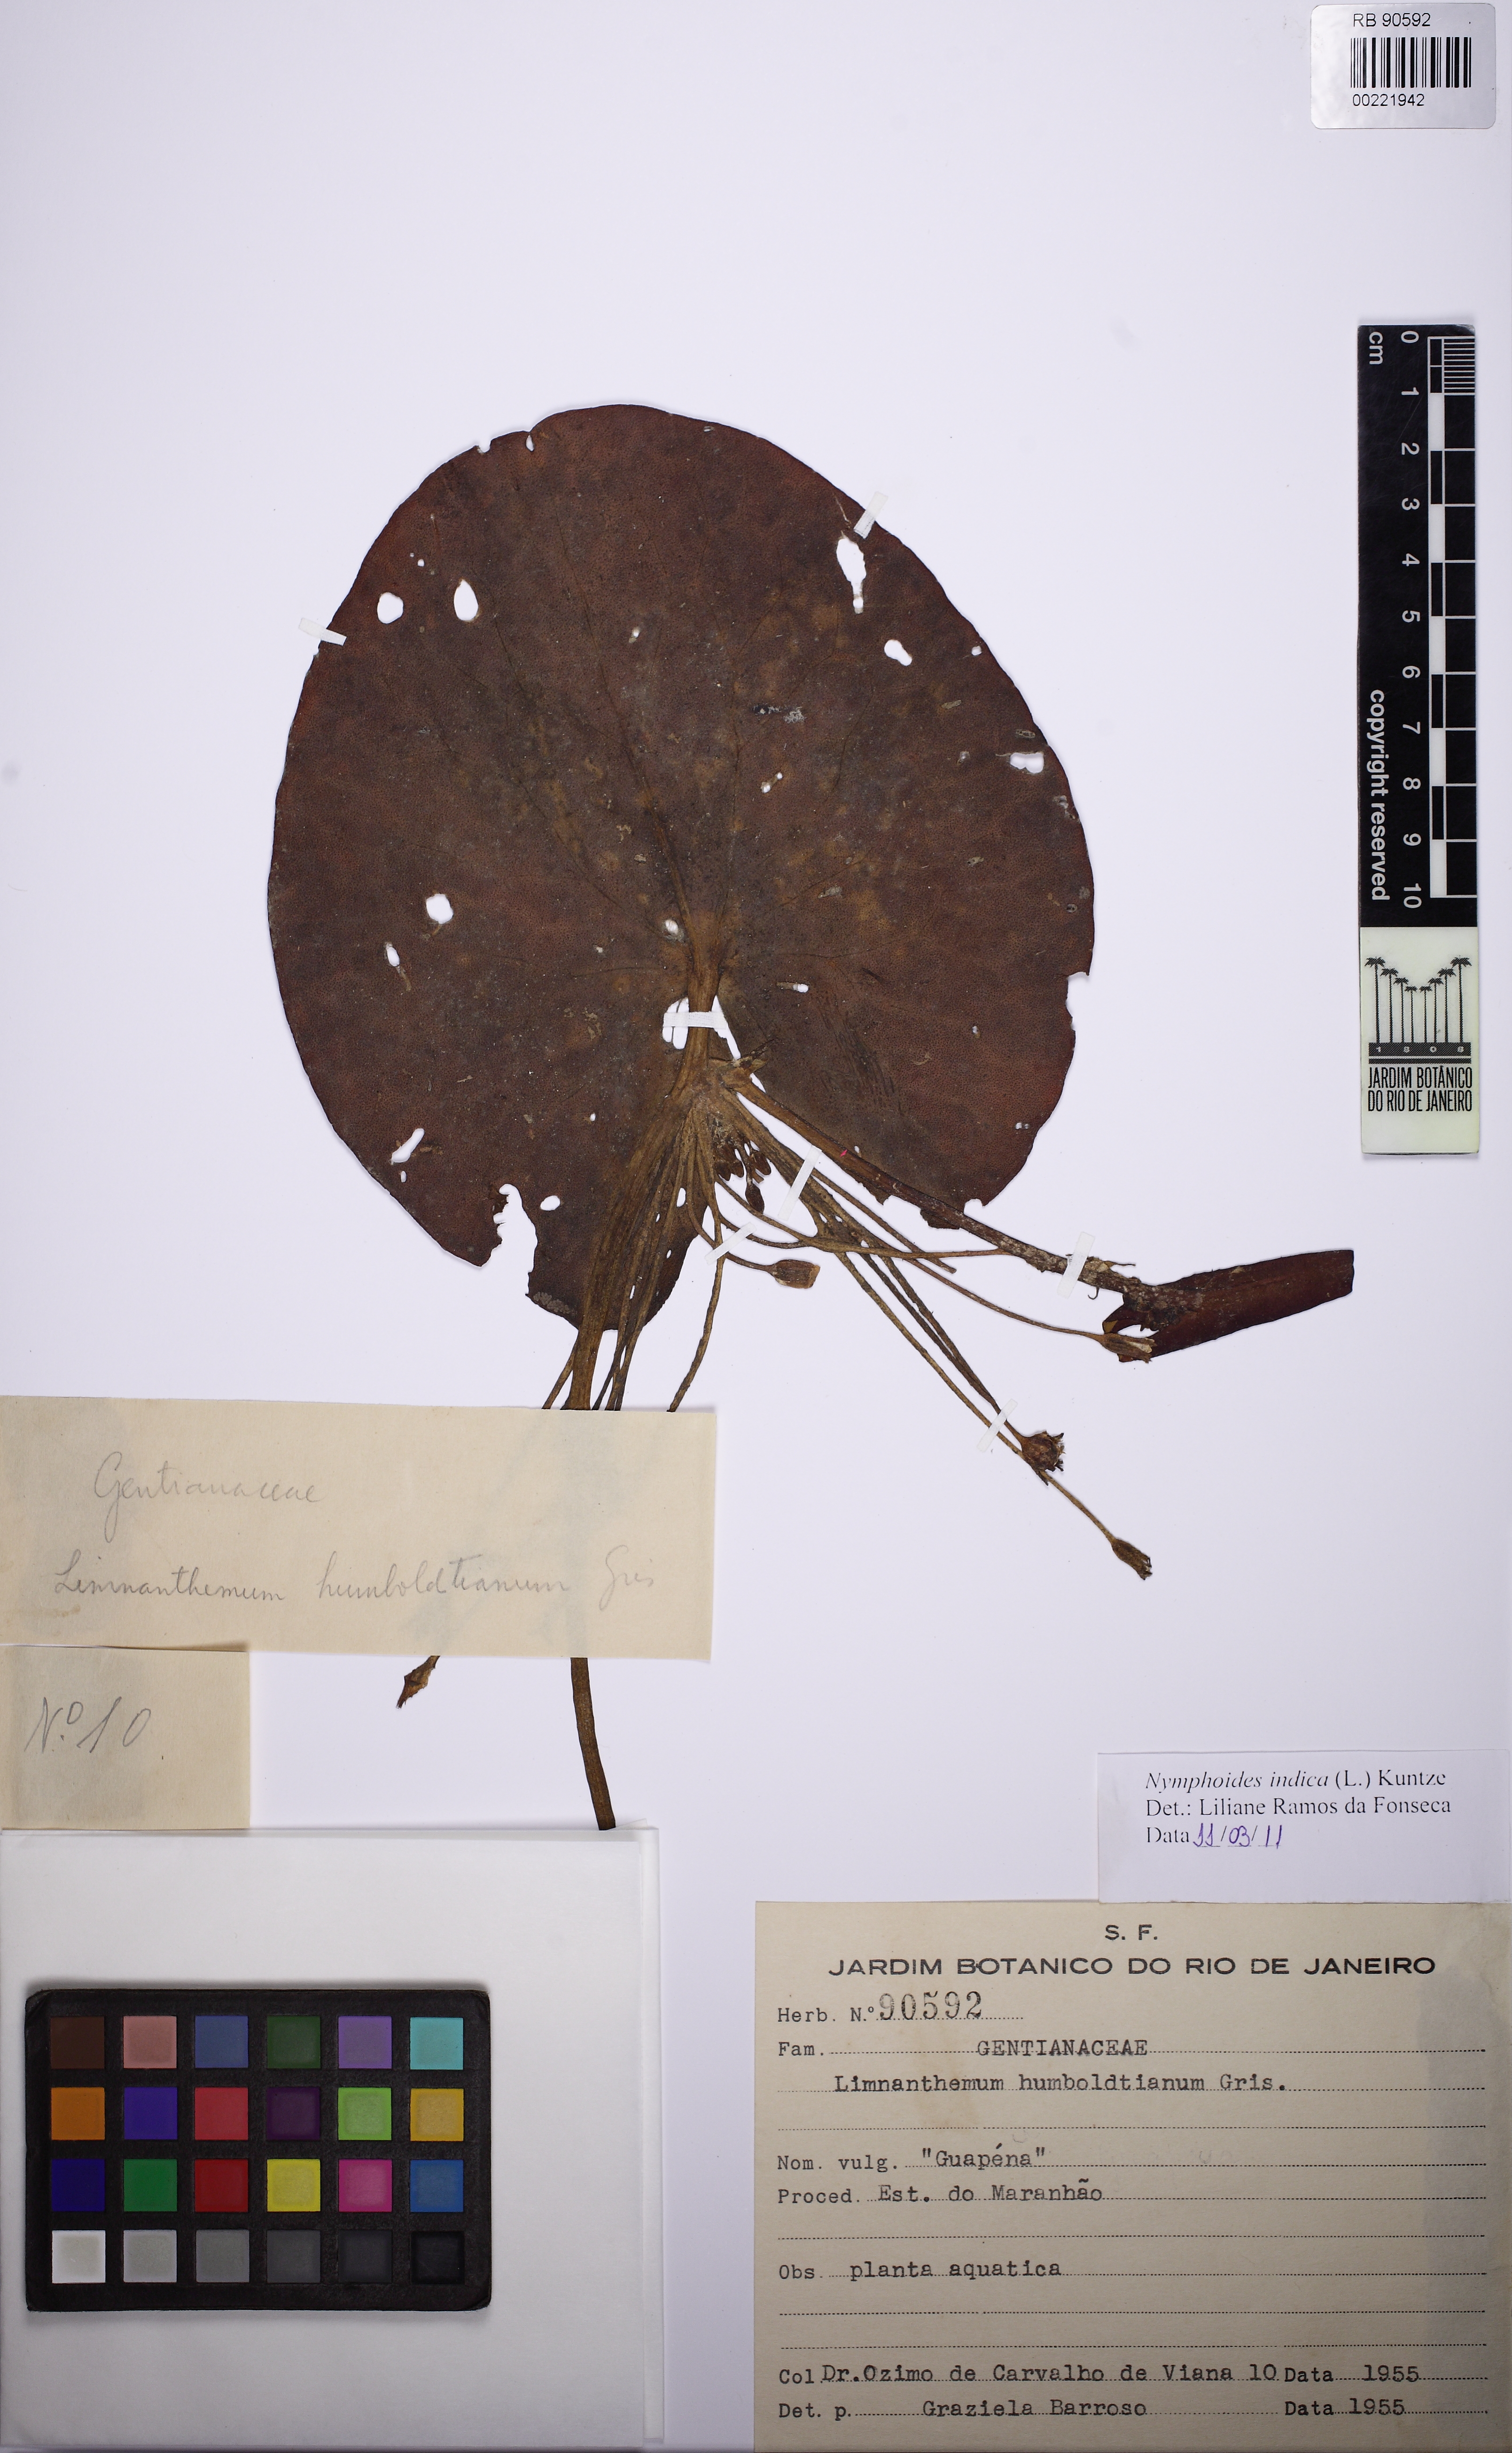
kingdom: Plantae
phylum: Tracheophyta
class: Magnoliopsida
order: Asterales
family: Menyanthaceae
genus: Nymphoides
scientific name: Nymphoides indica
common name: Water-snowflake
